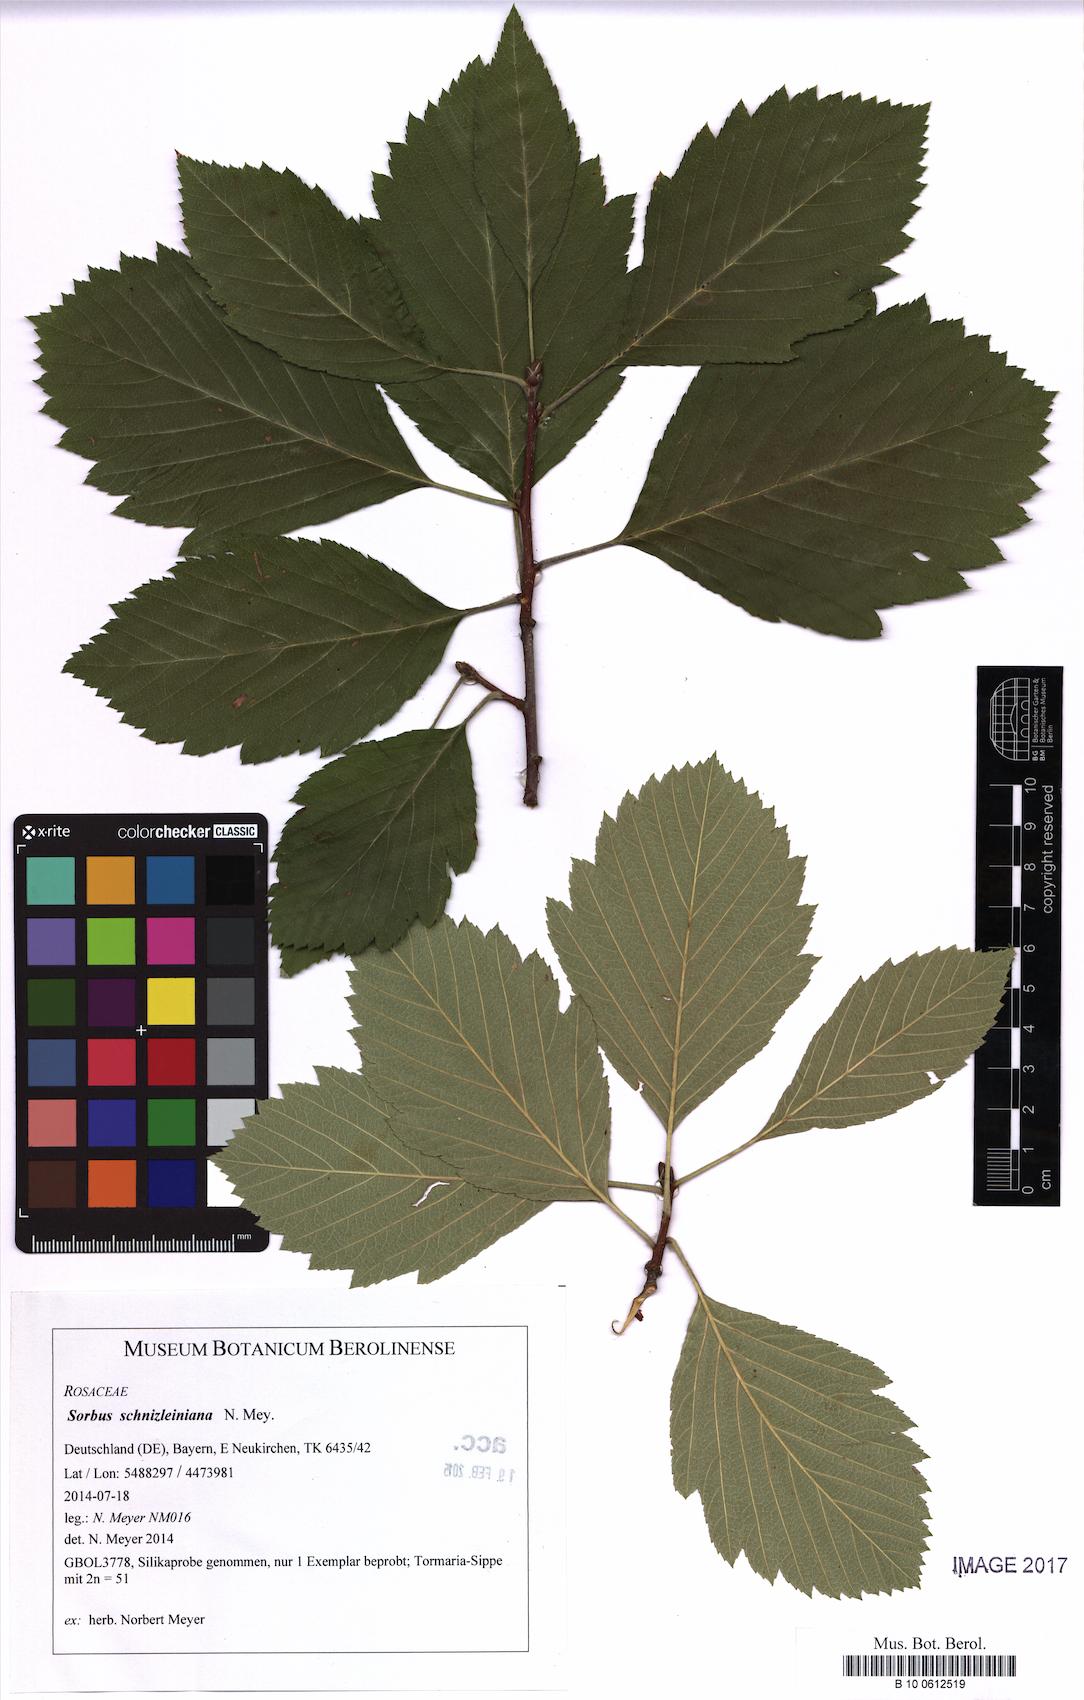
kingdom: Plantae
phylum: Tracheophyta
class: Magnoliopsida
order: Rosales
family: Rosaceae
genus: Karpatiosorbus
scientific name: Karpatiosorbus schnizleiniana
